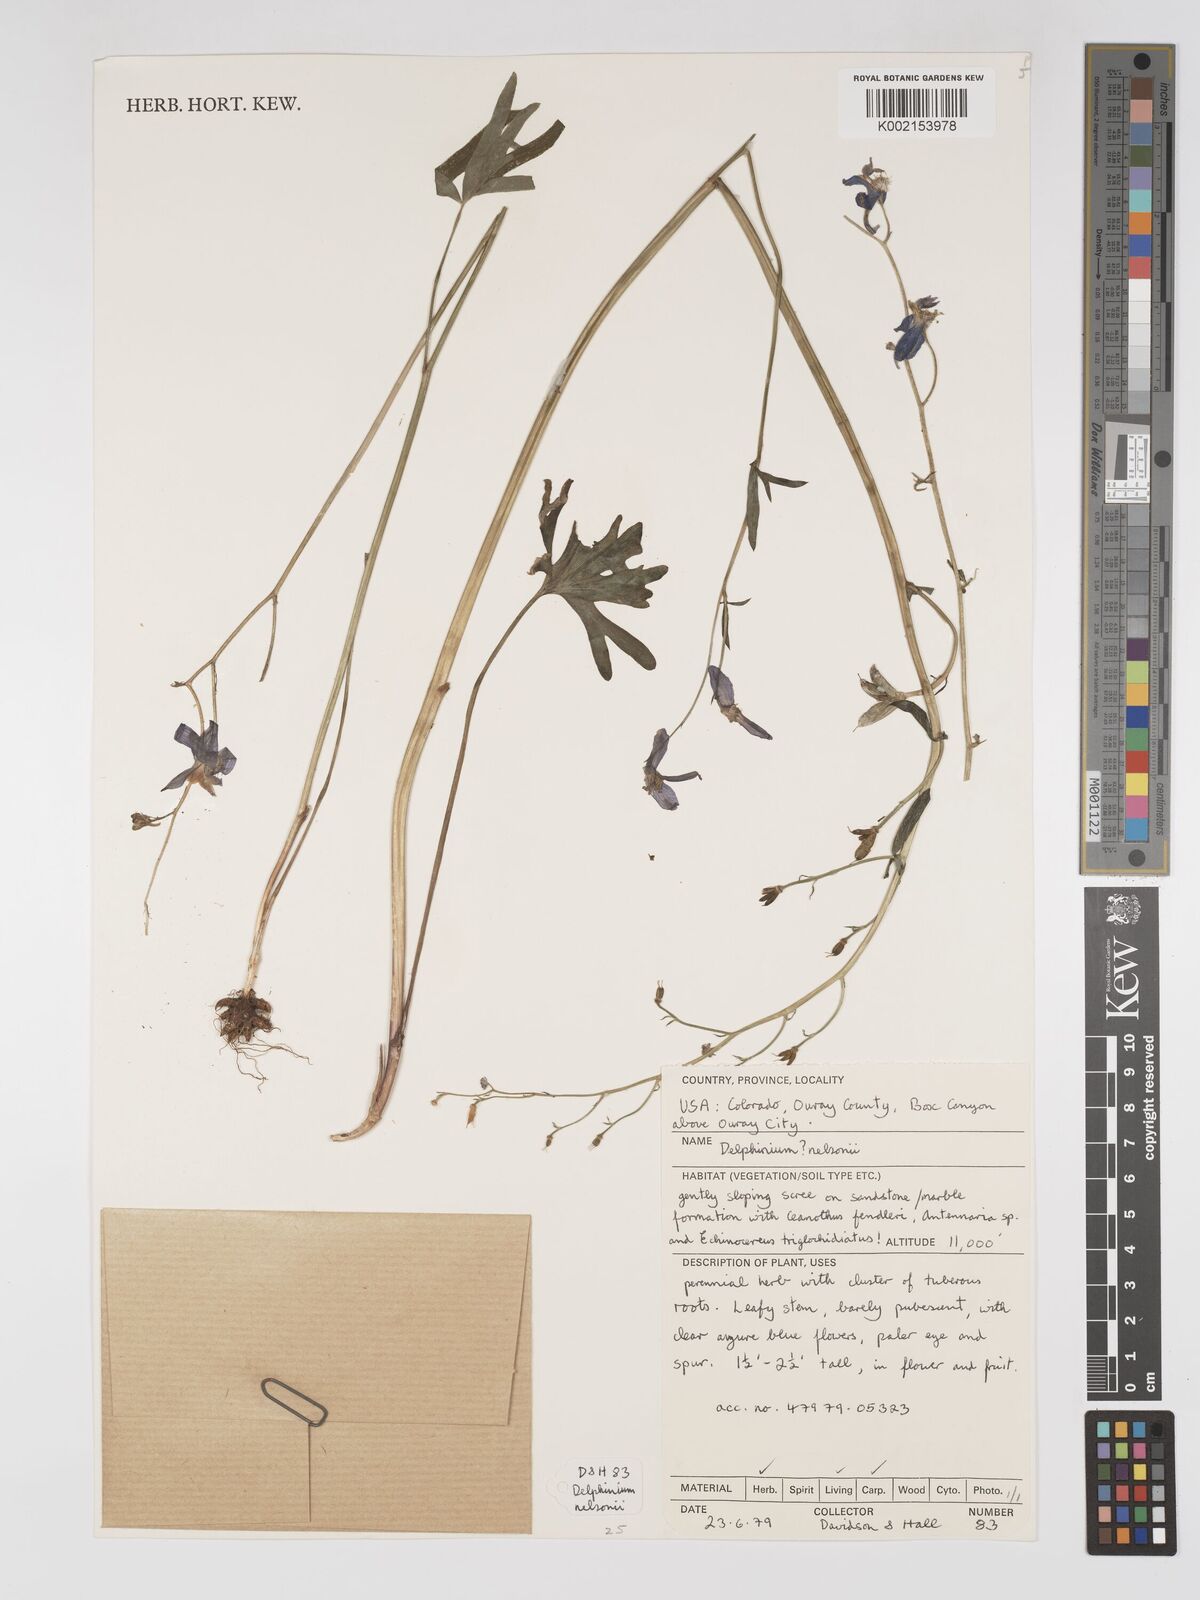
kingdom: Plantae
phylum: Tracheophyta
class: Magnoliopsida
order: Ranunculales
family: Ranunculaceae
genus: Delphinium
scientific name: Delphinium nuttallianum
